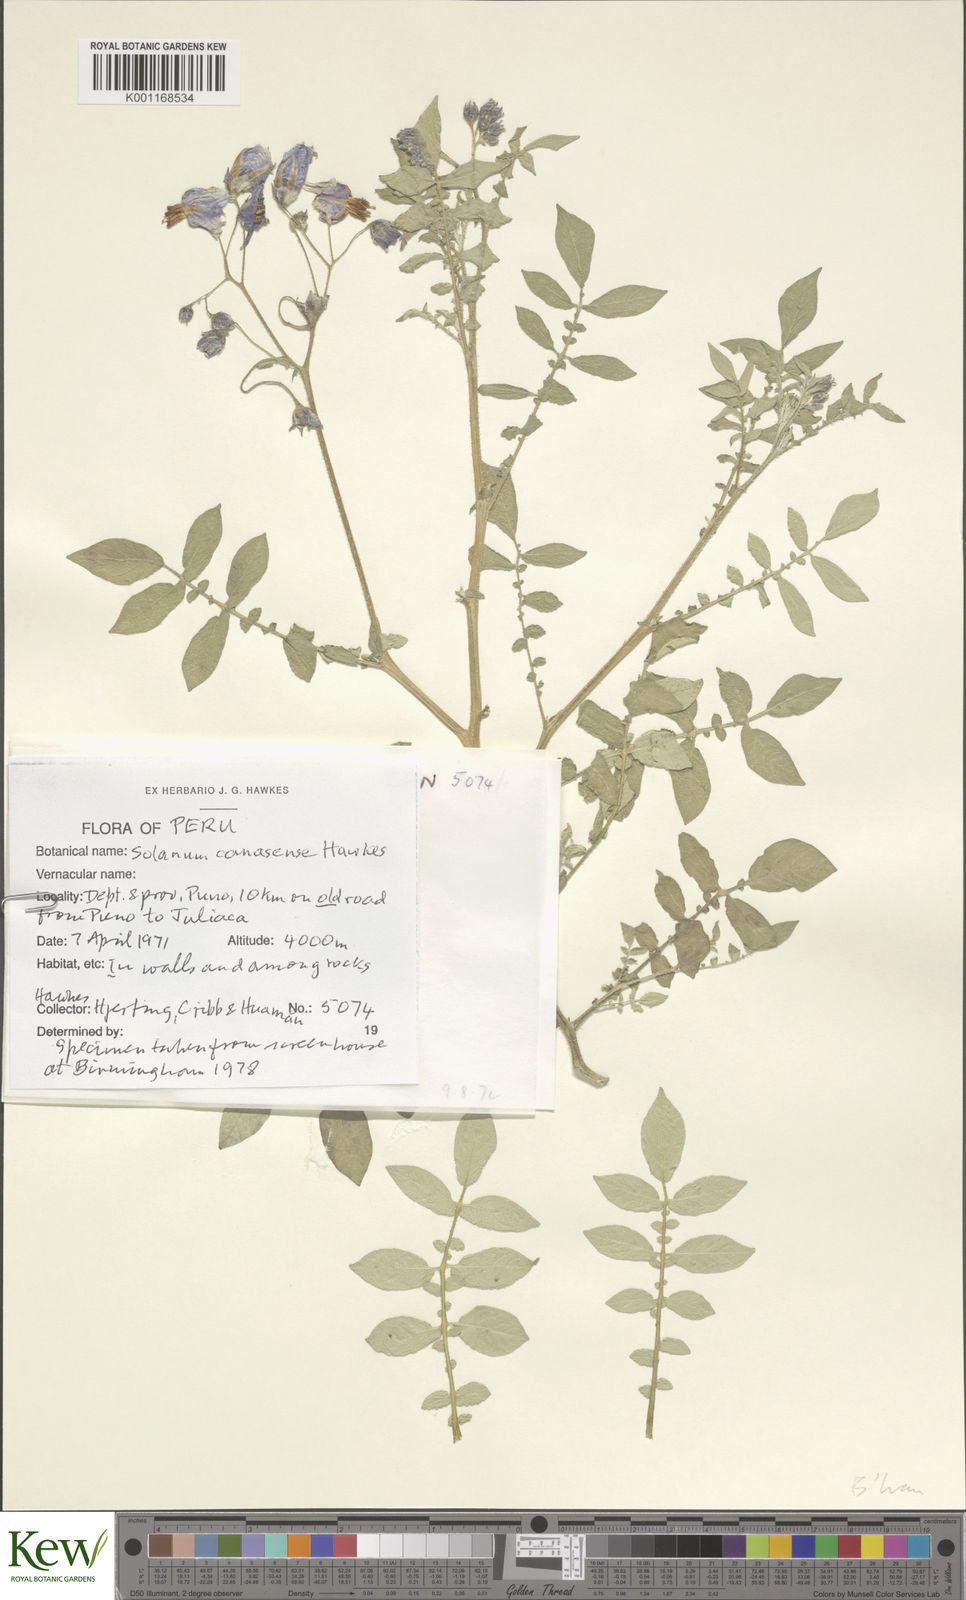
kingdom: Plantae
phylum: Tracheophyta
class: Magnoliopsida
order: Solanales
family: Solanaceae
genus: Solanum
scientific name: Solanum candolleanum
